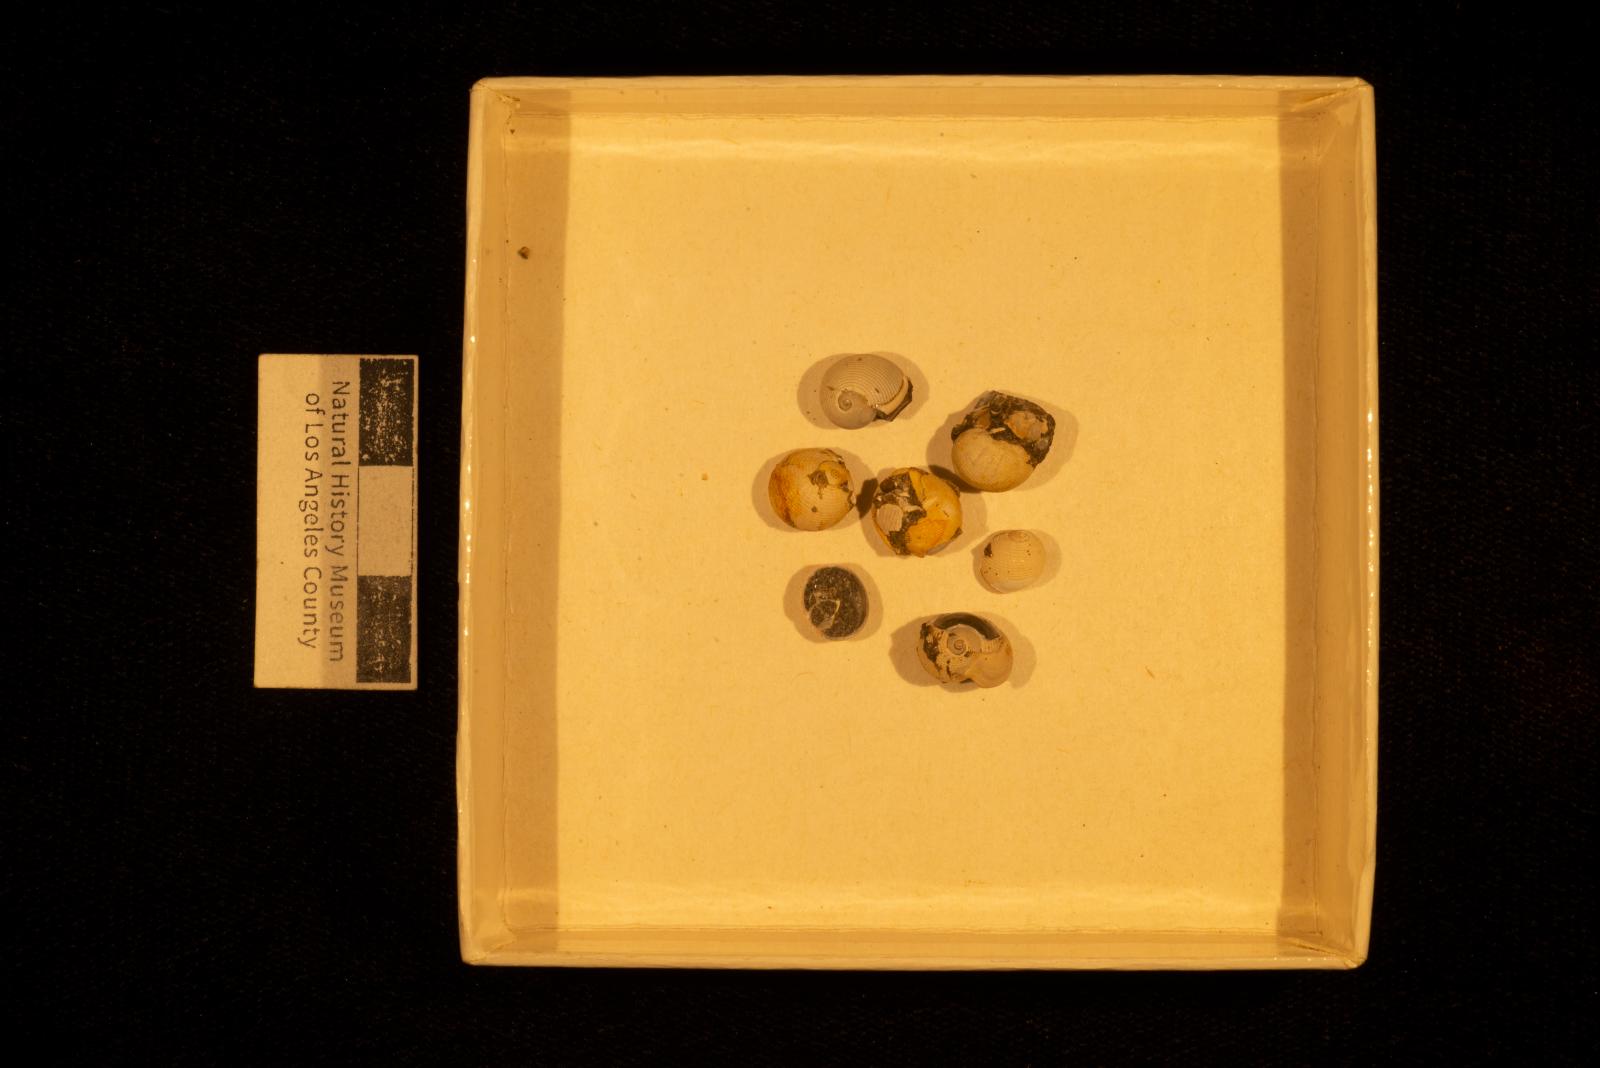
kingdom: Animalia
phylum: Mollusca
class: Gastropoda
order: Cephalaspidea
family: Ringiculidae
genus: Biplica
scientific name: Biplica heteroplicata
